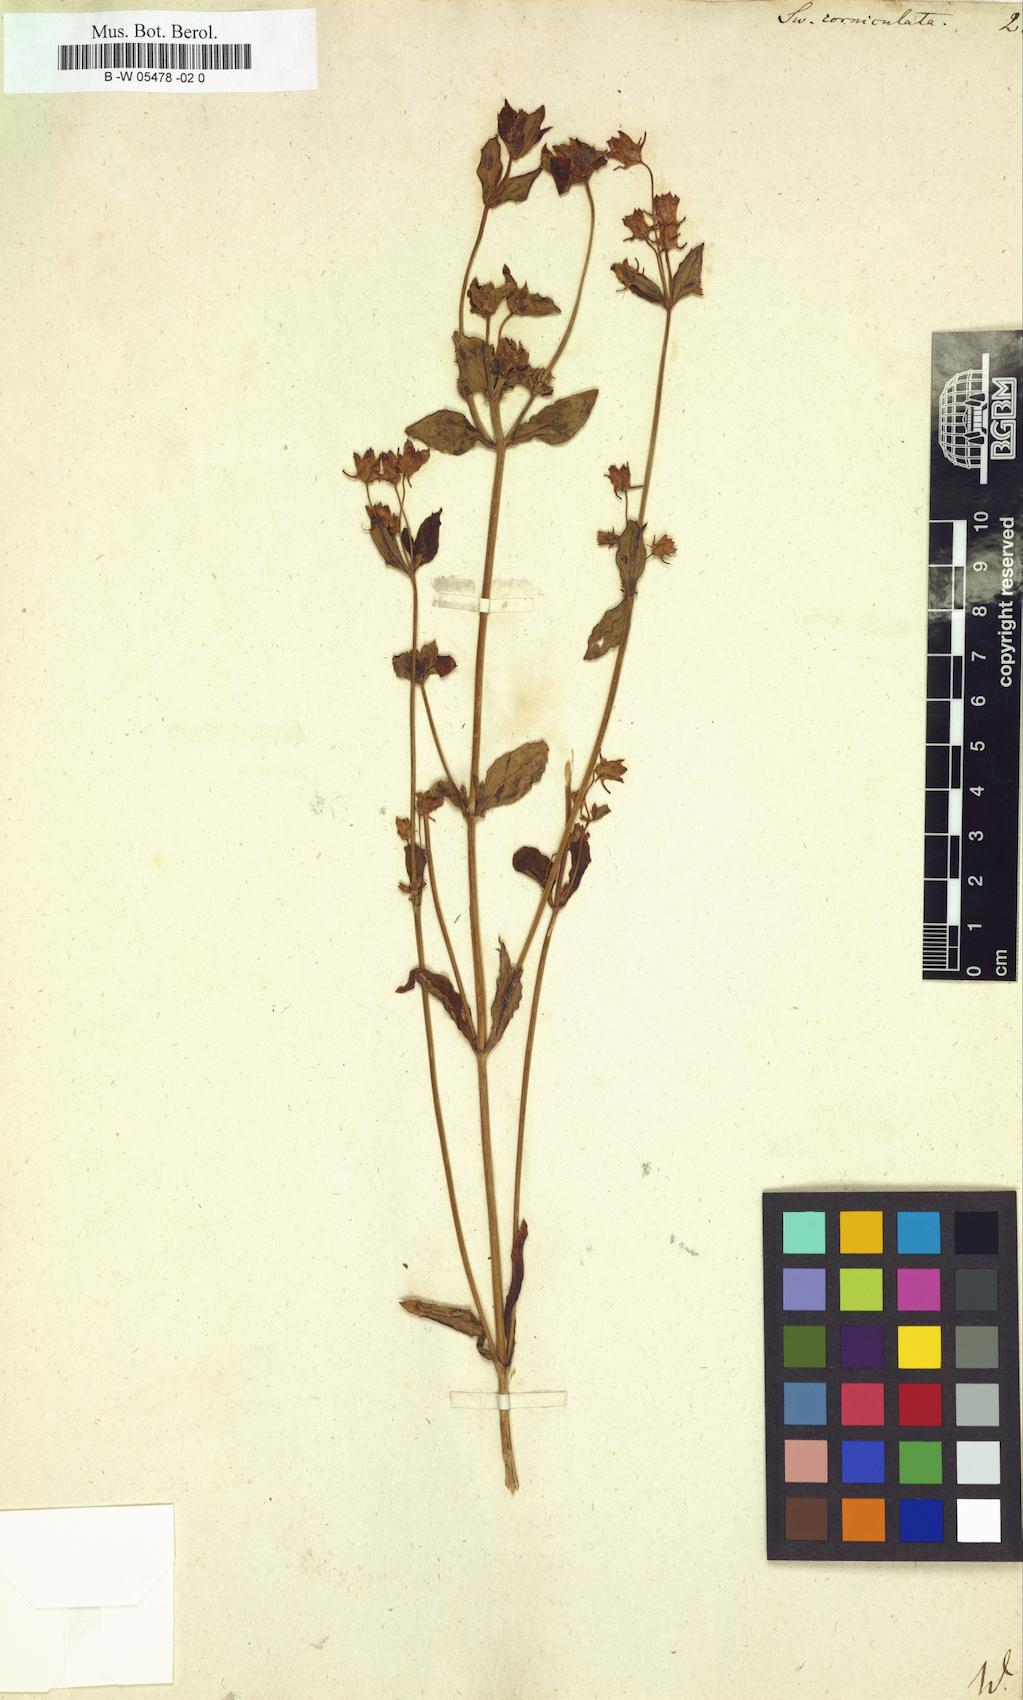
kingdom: Plantae
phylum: Tracheophyta
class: Magnoliopsida
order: Gentianales
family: Gentianaceae
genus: Halenia
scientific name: Halenia
